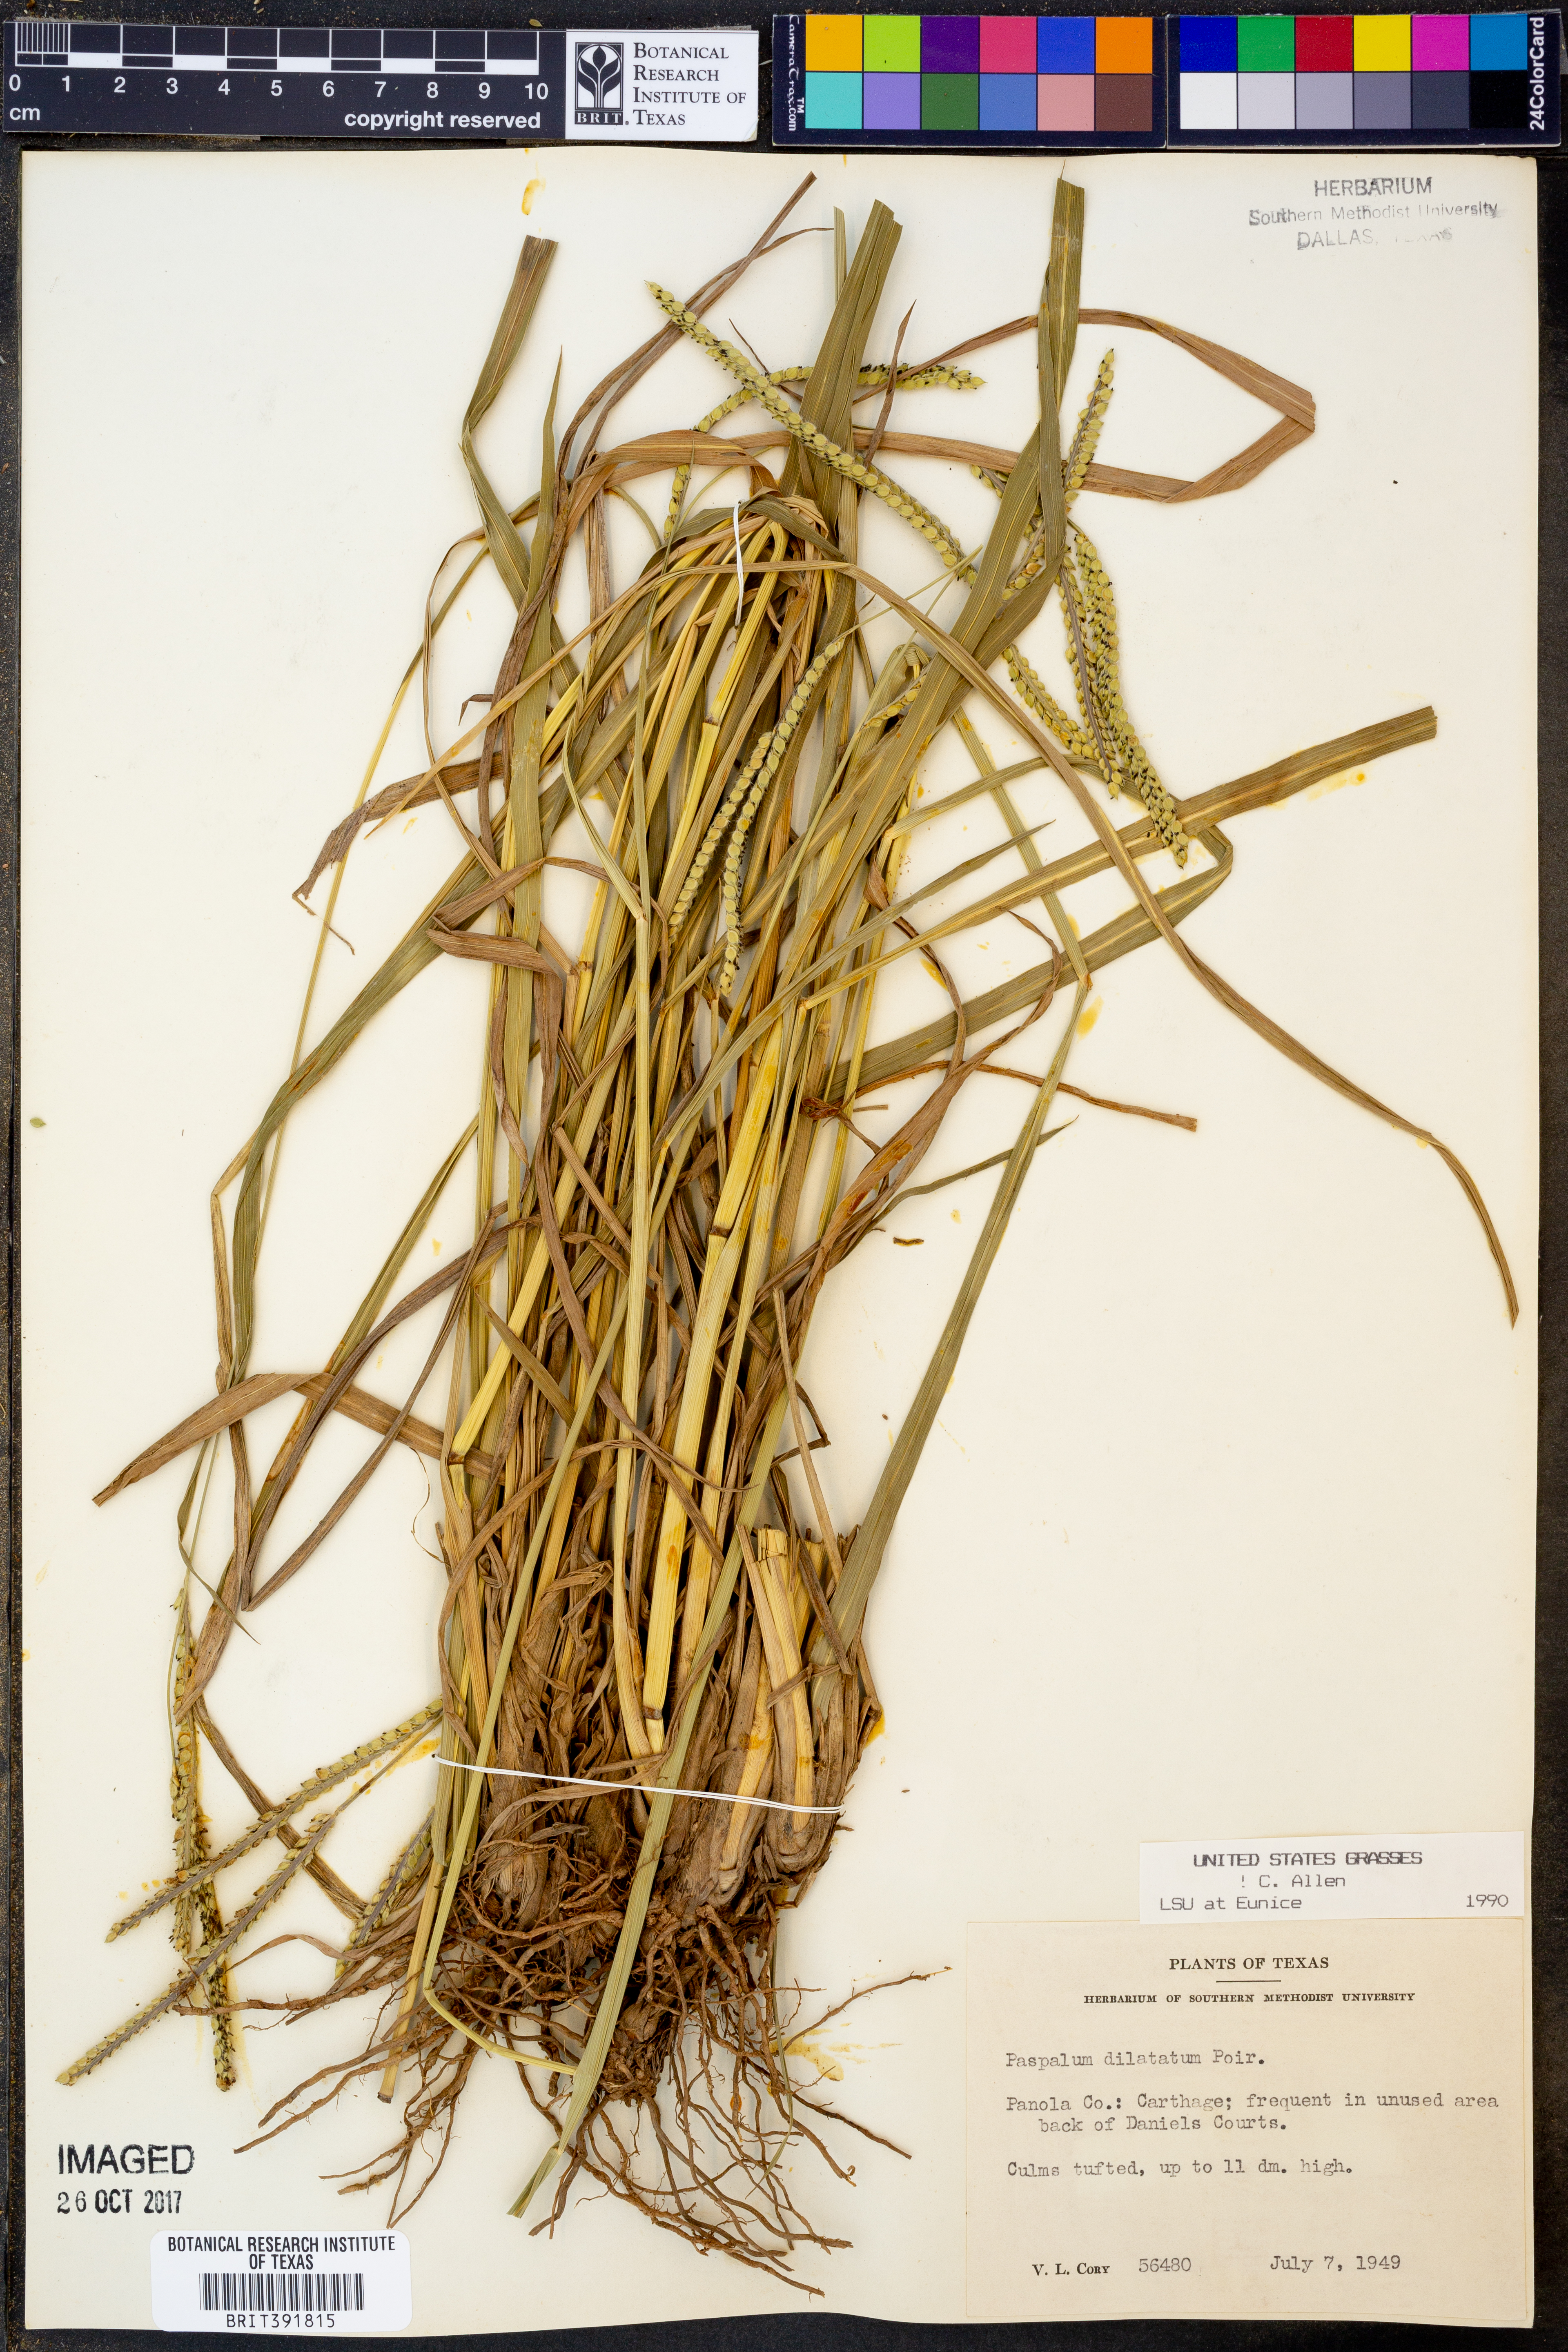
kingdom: Plantae
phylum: Tracheophyta
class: Liliopsida
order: Poales
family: Poaceae
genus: Paspalum
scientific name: Paspalum dilatatum
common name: Dallisgrass
